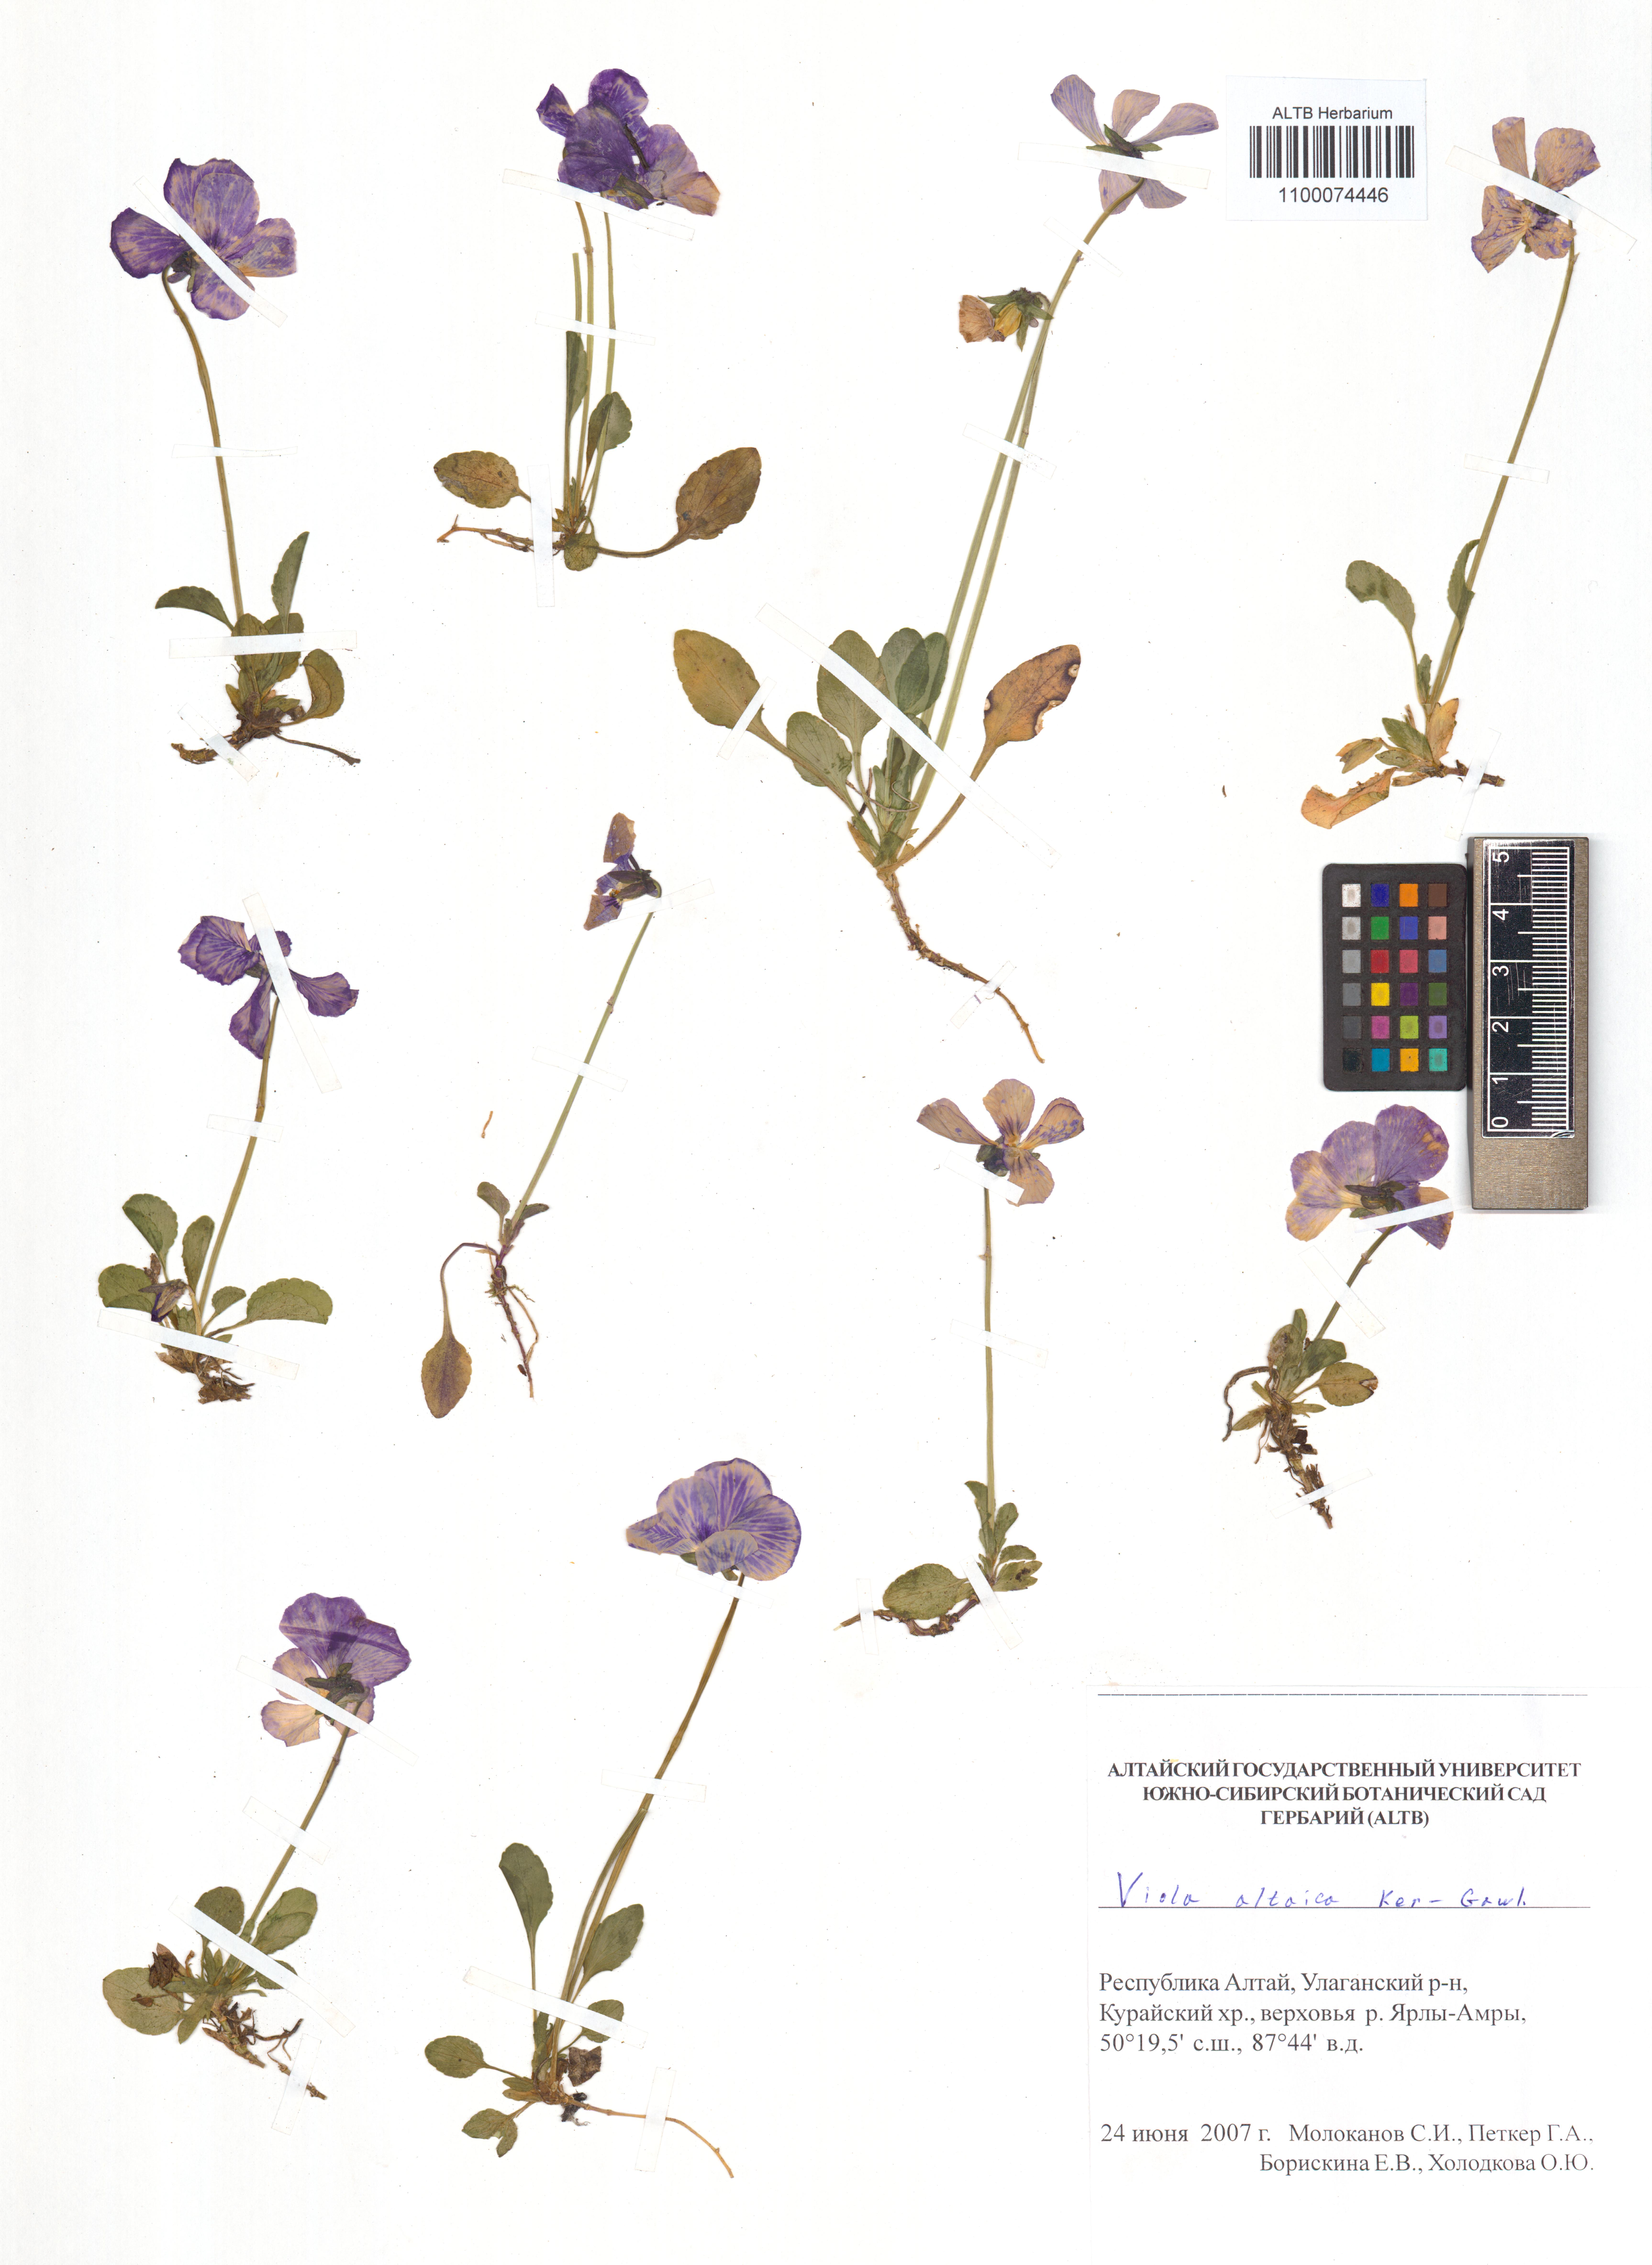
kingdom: Plantae
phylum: Tracheophyta
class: Magnoliopsida
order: Malpighiales
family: Violaceae
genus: Viola
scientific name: Viola altaica
